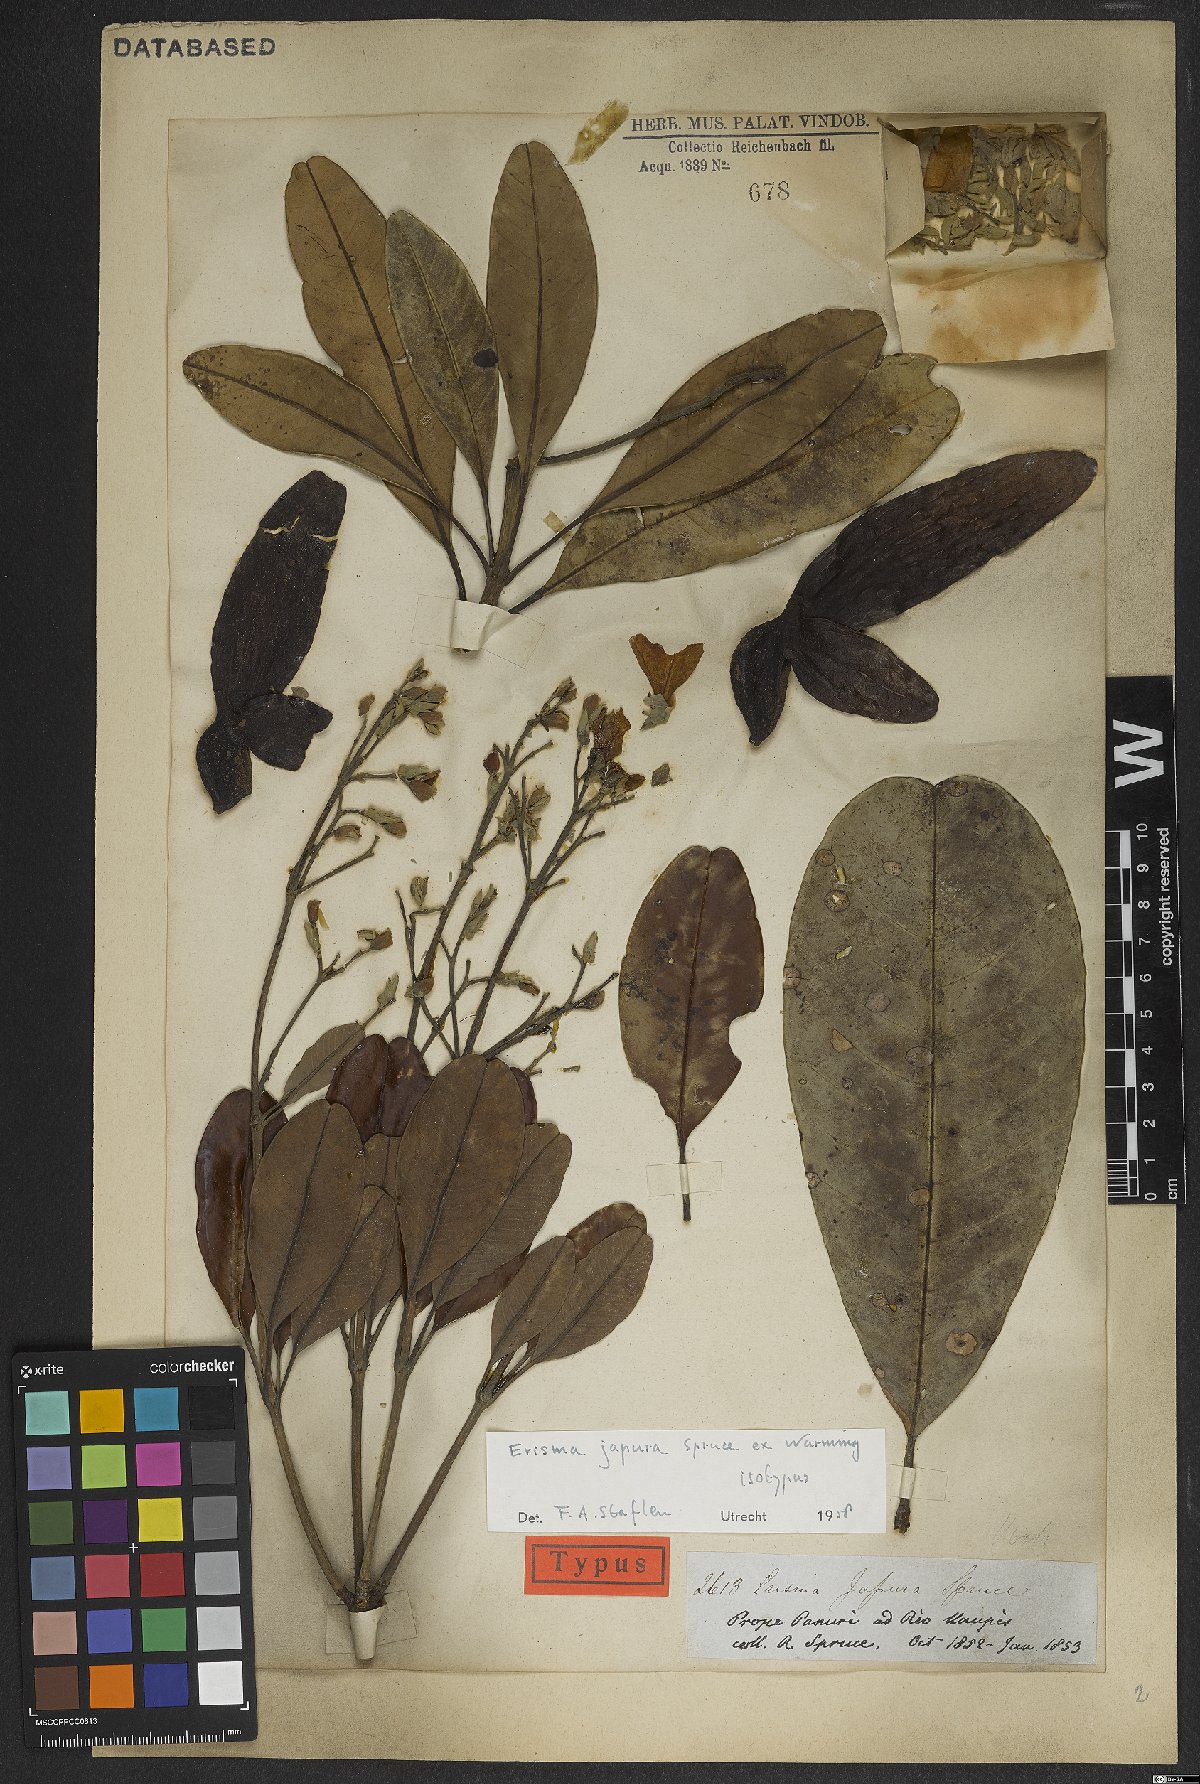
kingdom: Plantae
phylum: Tracheophyta
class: Magnoliopsida
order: Myrtales
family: Vochysiaceae
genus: Erisma
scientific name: Erisma japura
